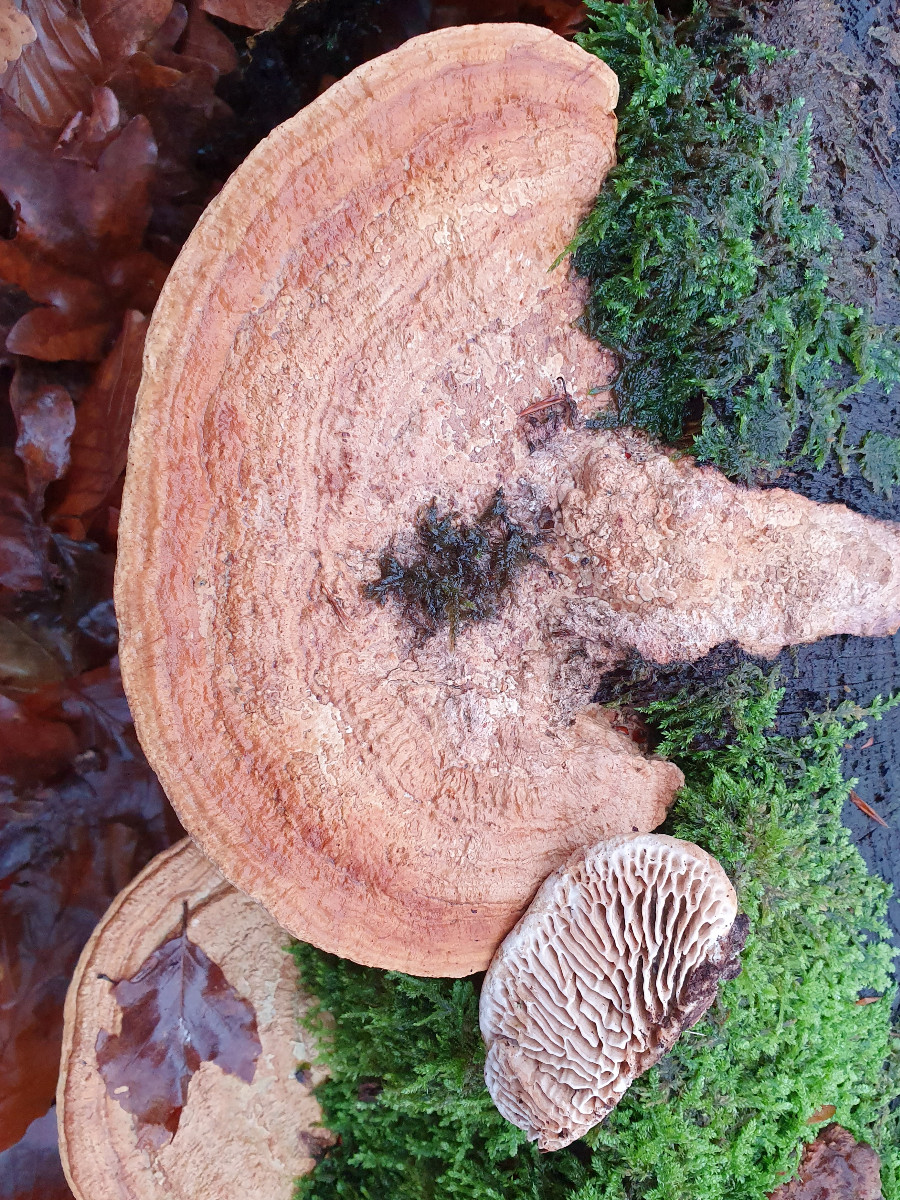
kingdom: Fungi
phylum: Basidiomycota
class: Agaricomycetes
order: Polyporales
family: Polyporaceae
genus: Daedaleopsis
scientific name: Daedaleopsis confragosa
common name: rødmende læderporesvamp
